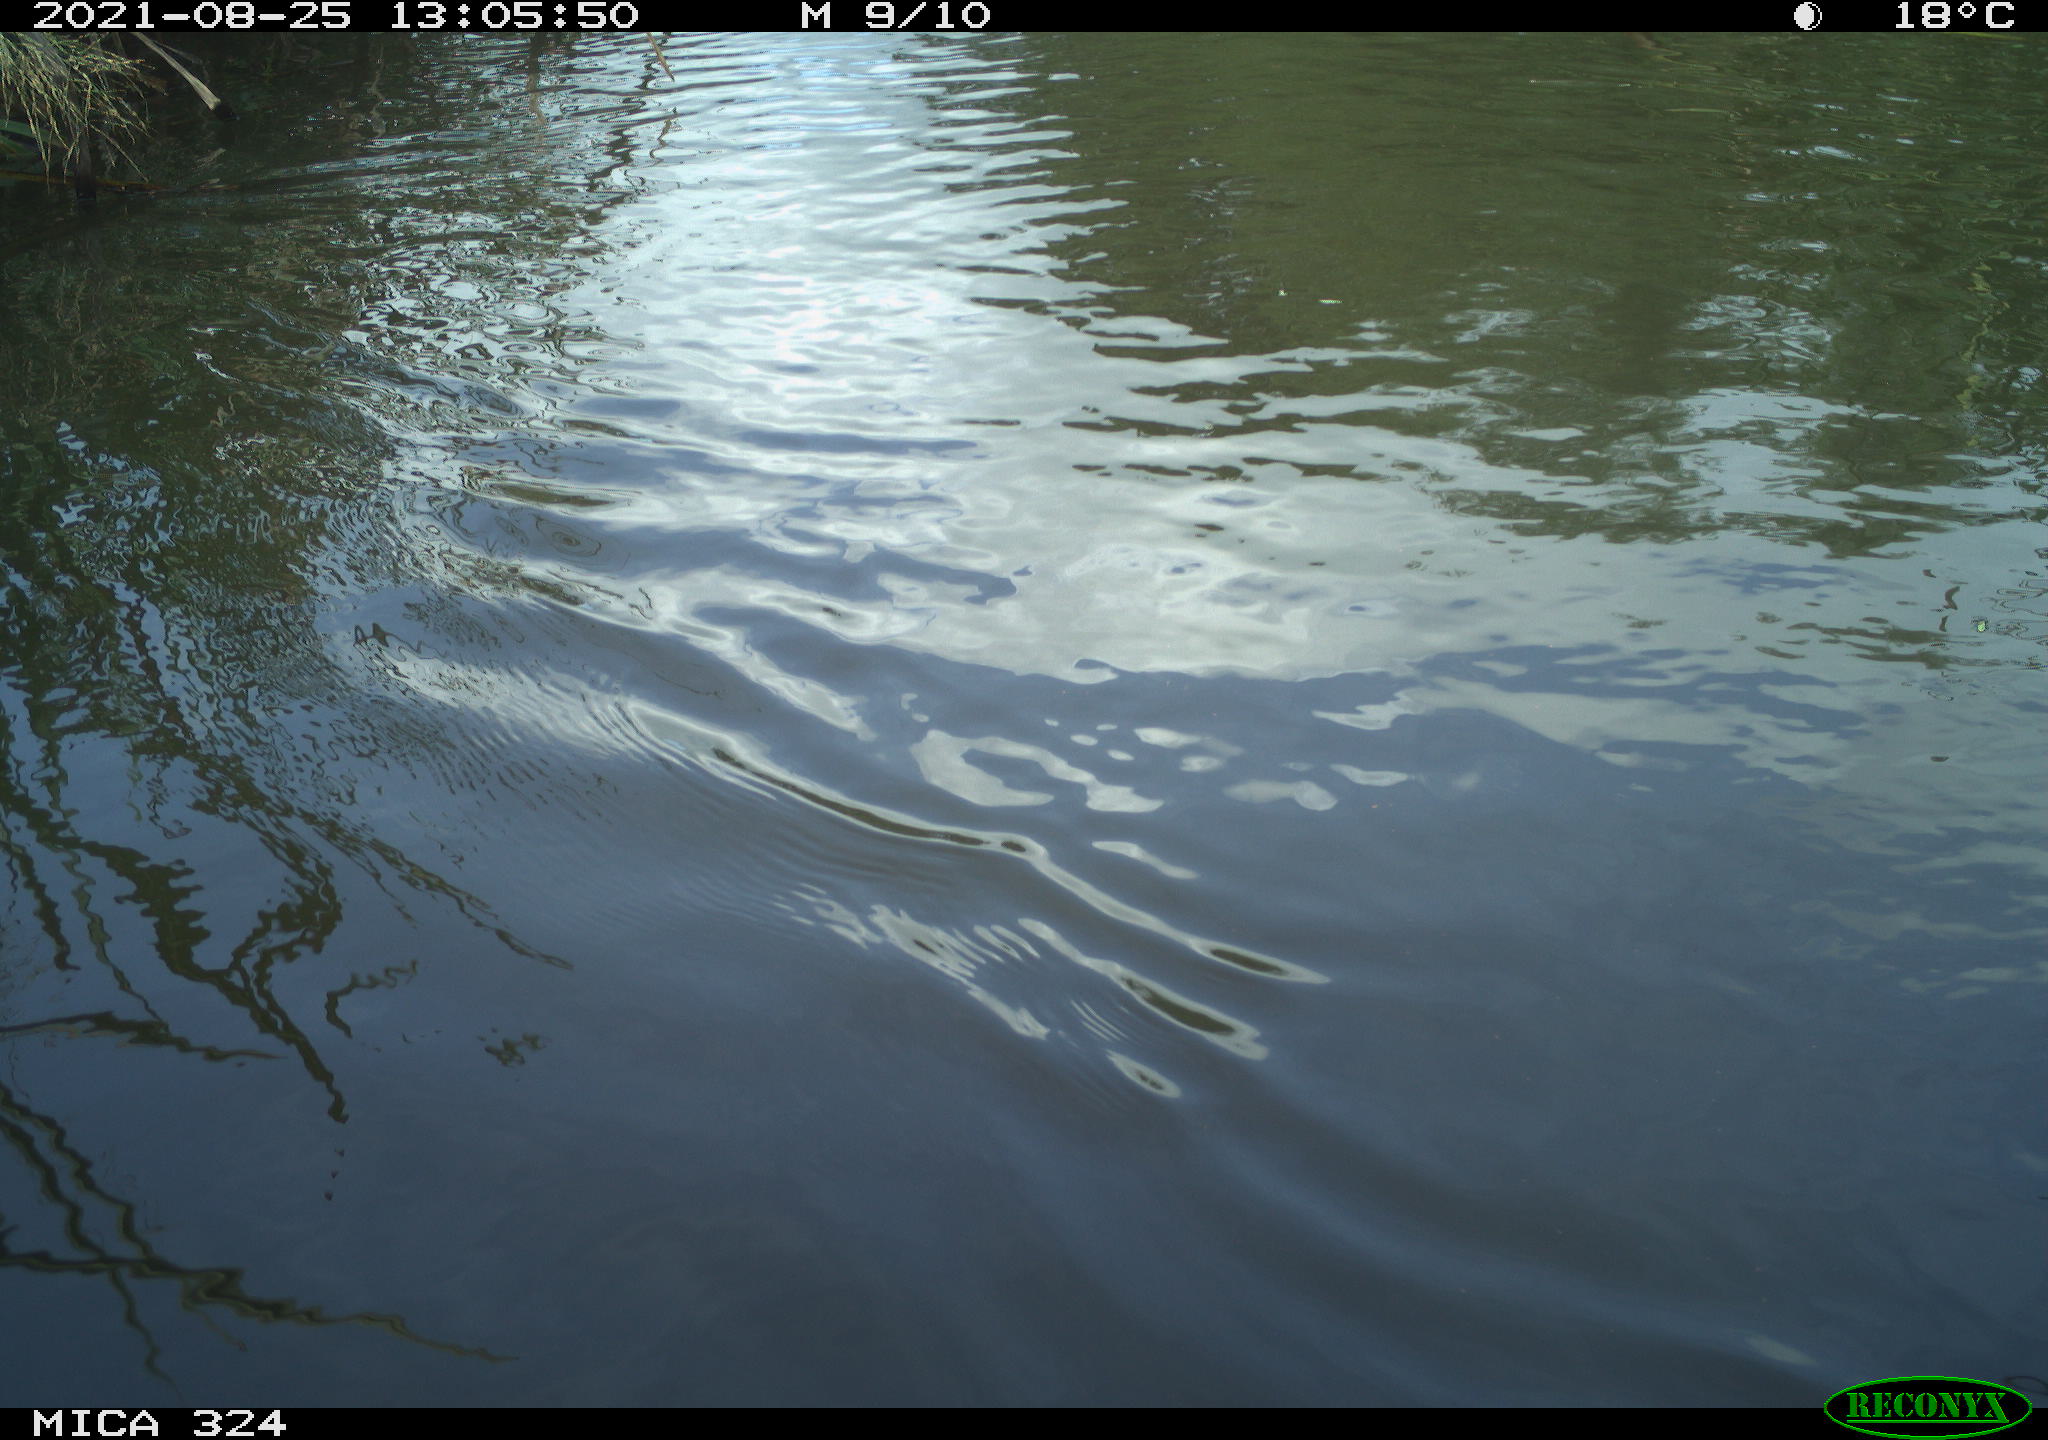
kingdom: Animalia
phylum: Chordata
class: Aves
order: Anseriformes
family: Anatidae
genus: Anas
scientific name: Anas platyrhynchos
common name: Mallard
